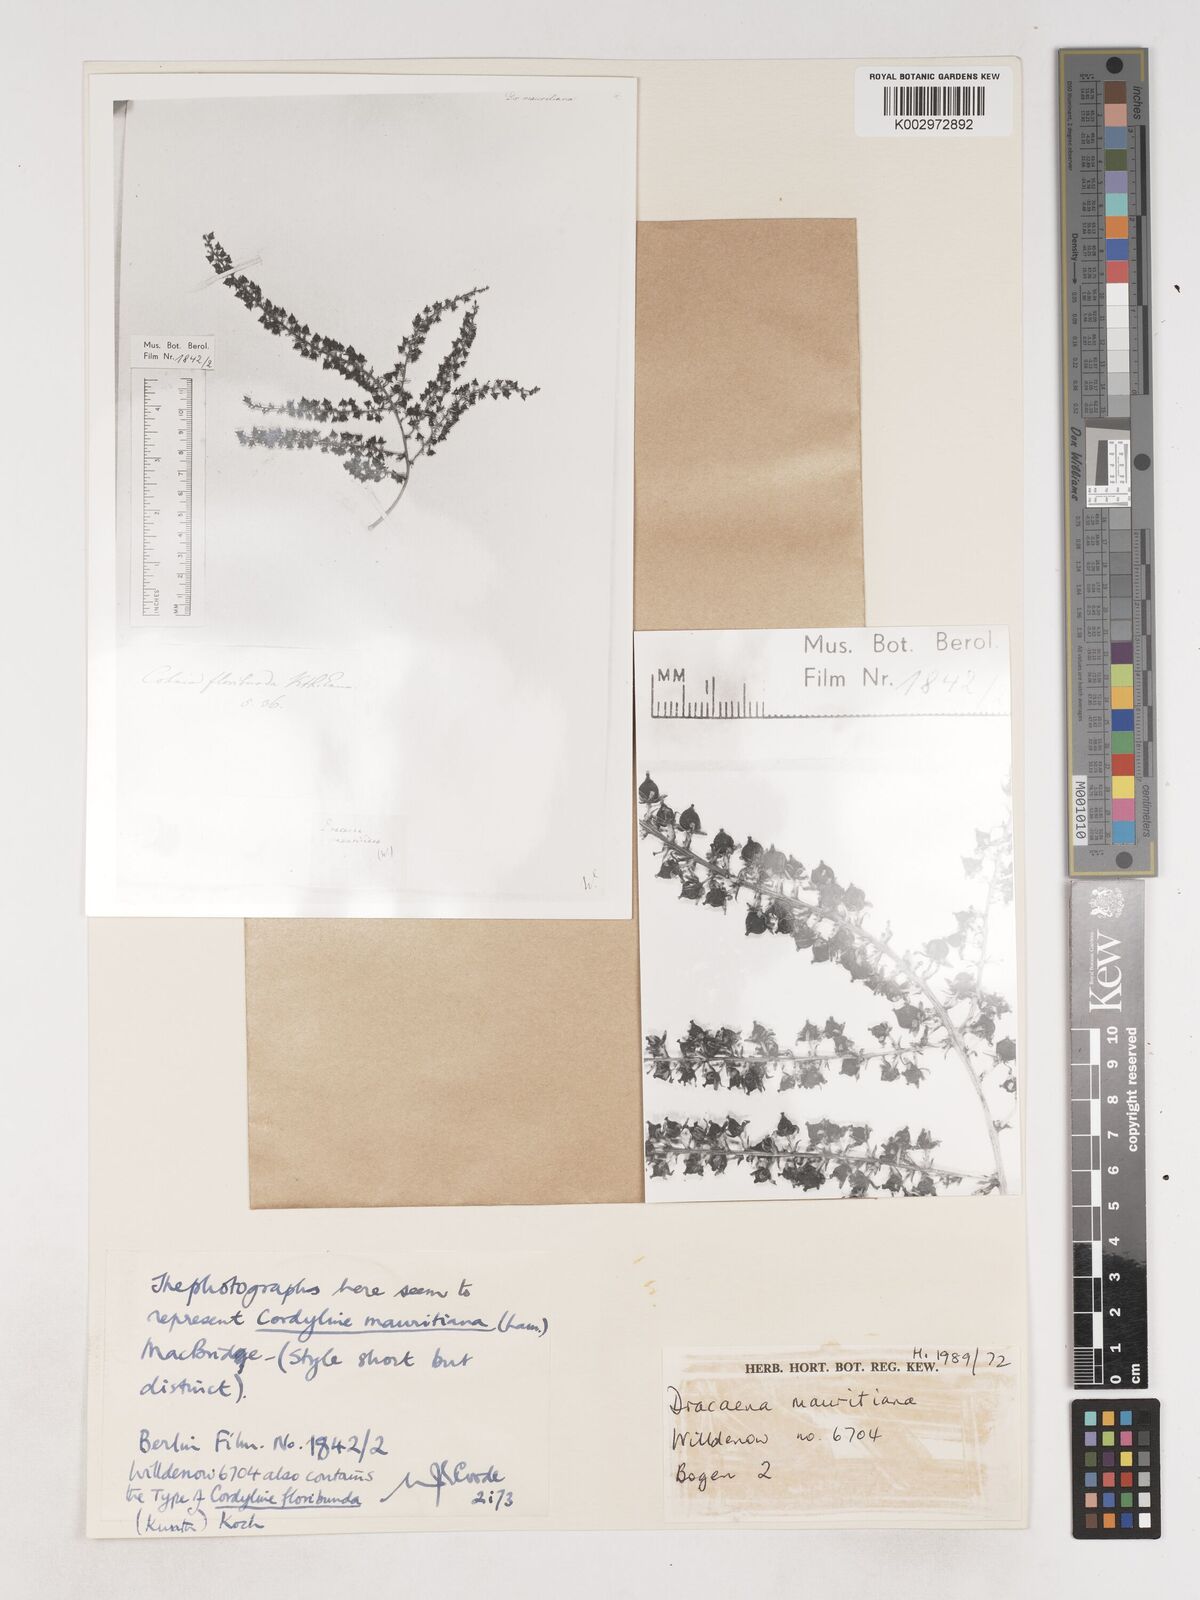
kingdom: Plantae
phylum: Tracheophyta
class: Liliopsida
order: Asparagales
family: Asparagaceae
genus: Cordyline
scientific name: Cordyline mauritiana
